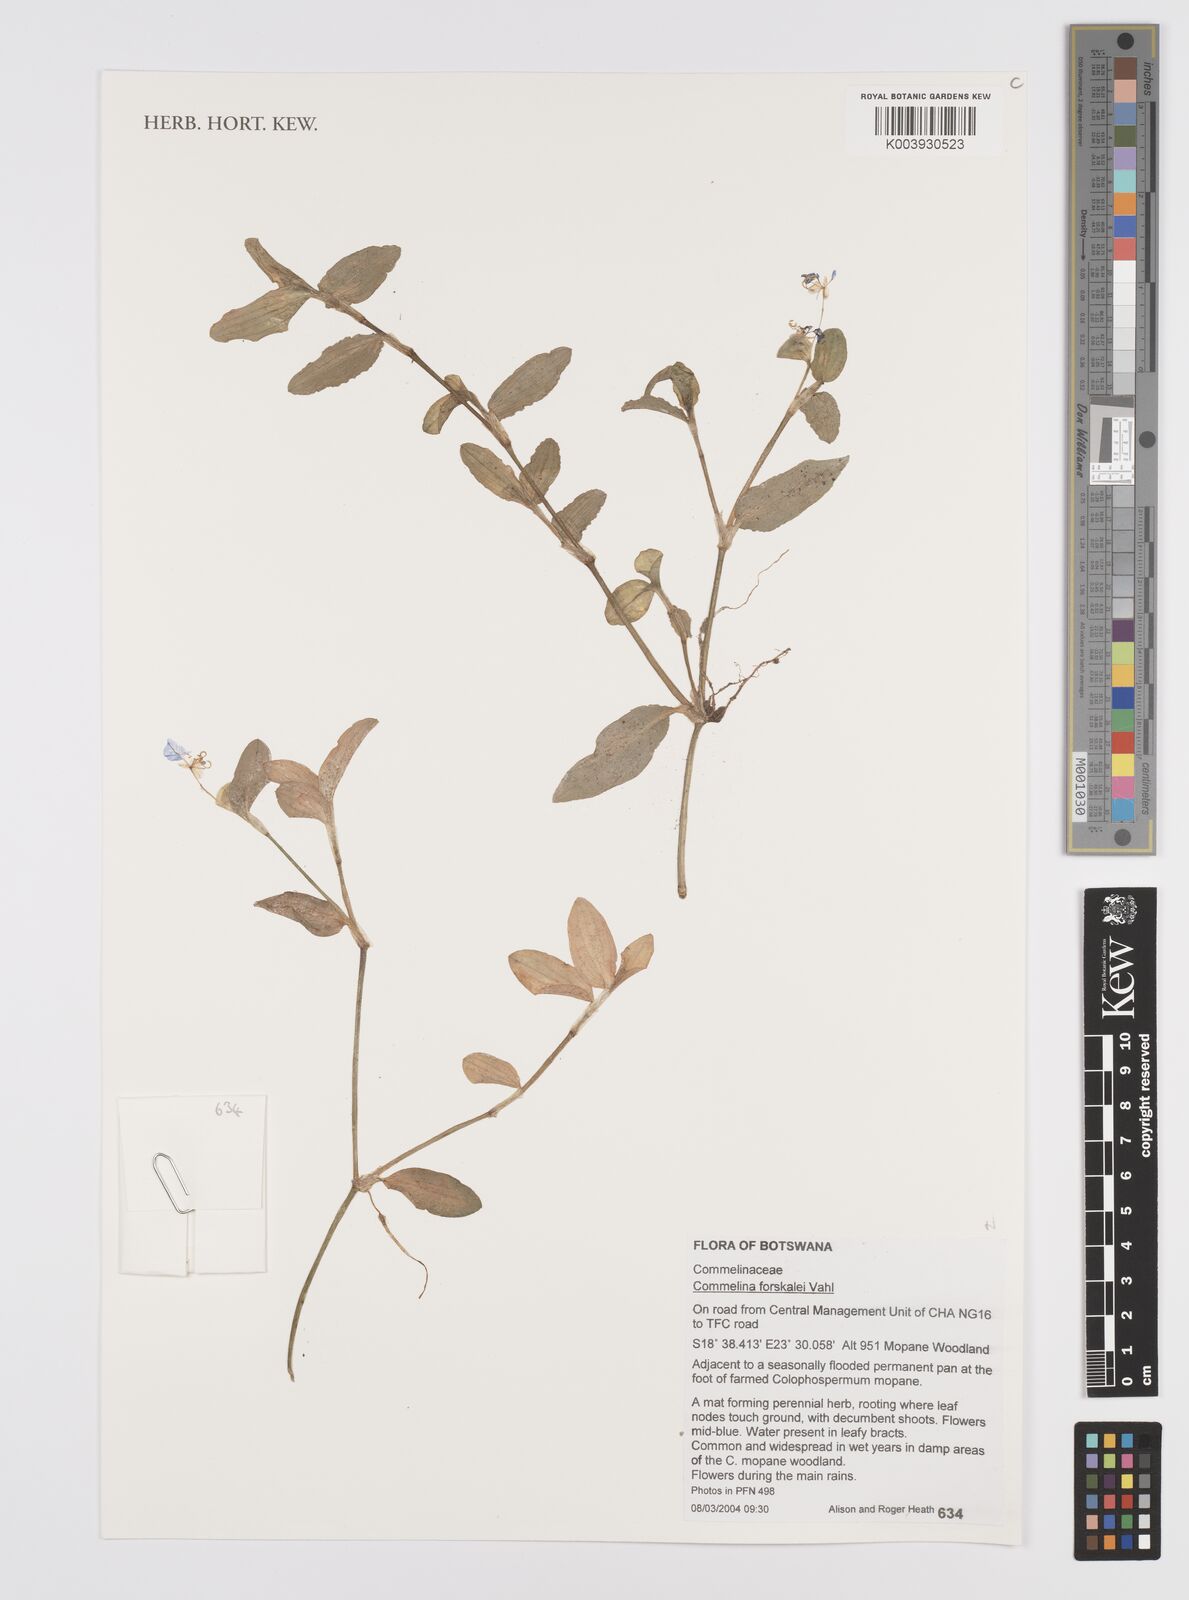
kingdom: Plantae
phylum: Tracheophyta
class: Liliopsida
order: Commelinales
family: Commelinaceae
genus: Commelina
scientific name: Commelina forskaolii
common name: Rat's ear
